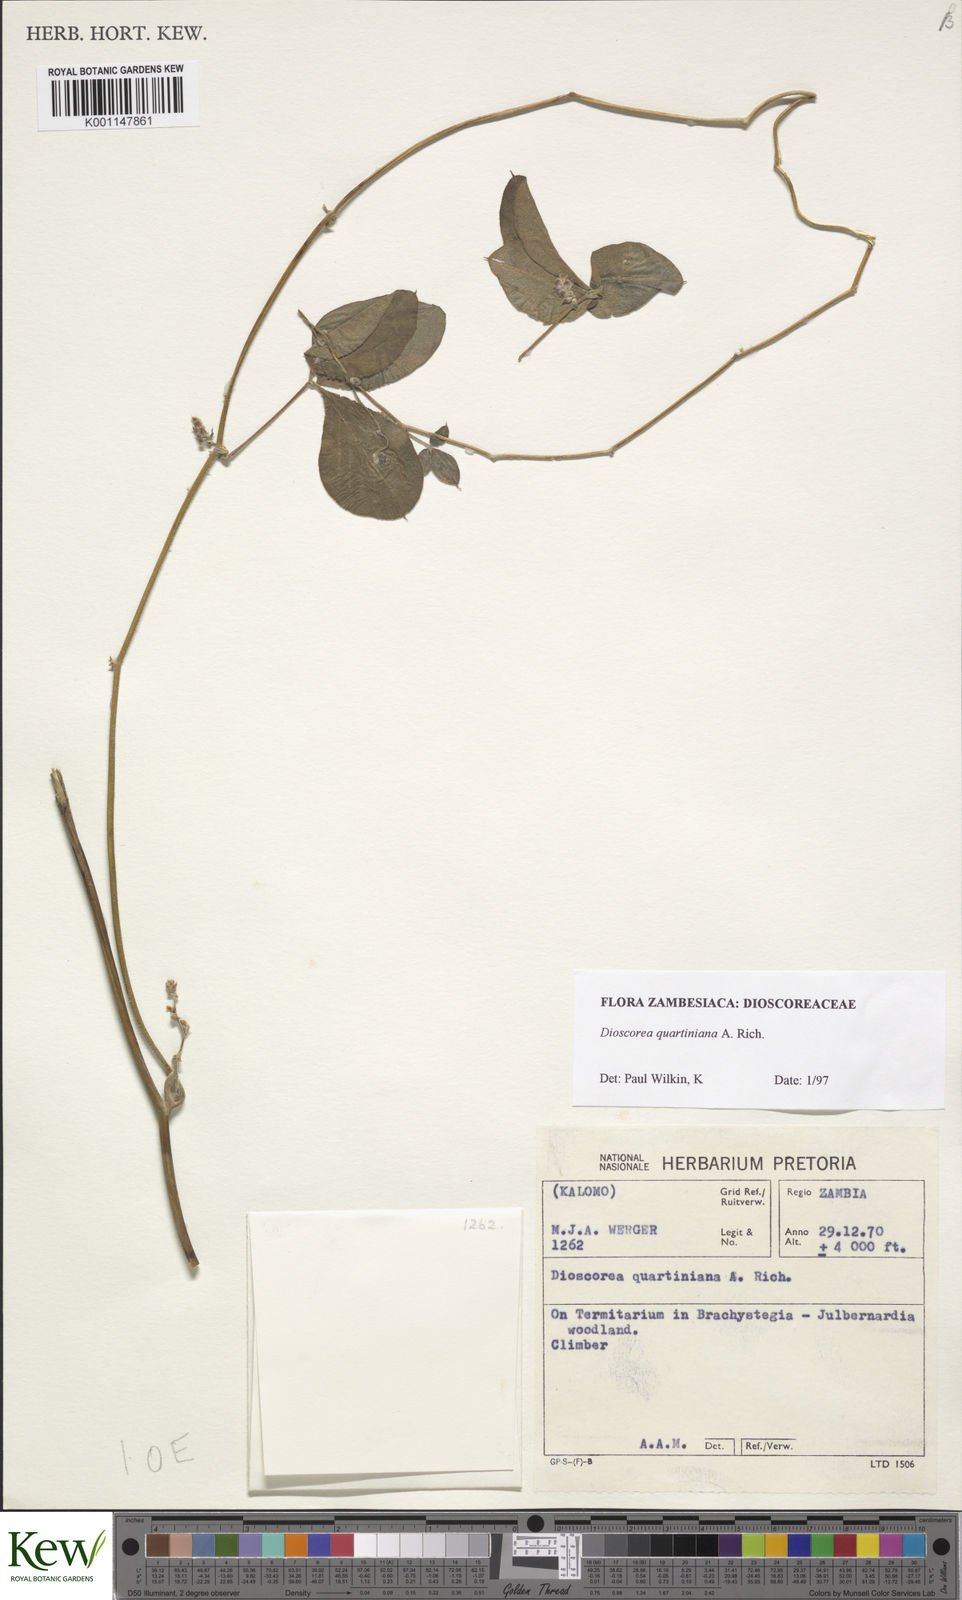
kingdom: Plantae
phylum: Tracheophyta
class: Liliopsida
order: Dioscoreales
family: Dioscoreaceae
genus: Dioscorea
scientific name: Dioscorea quartiniana
